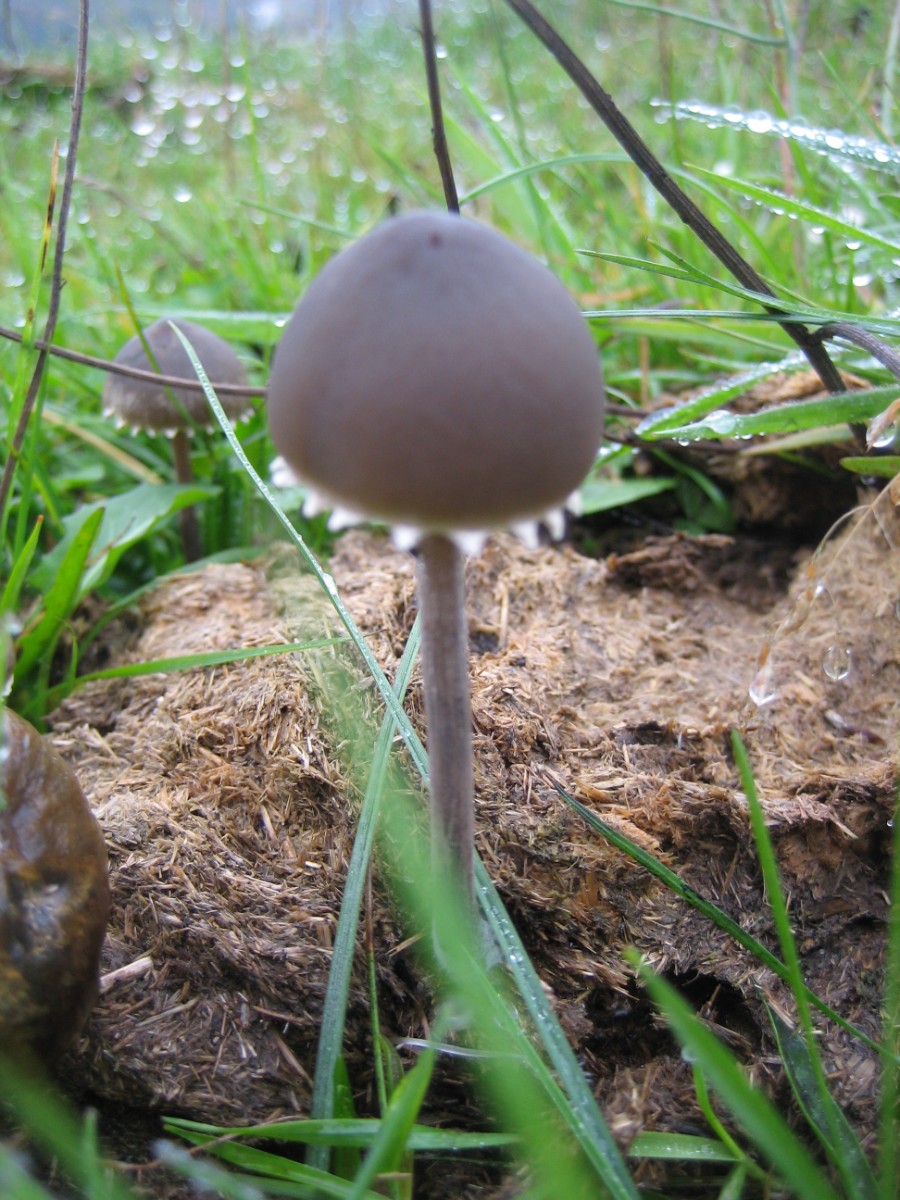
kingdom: Fungi
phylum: Basidiomycota
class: Agaricomycetes
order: Agaricales
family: Bolbitiaceae
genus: Panaeolus
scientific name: Panaeolus papilionaceus
